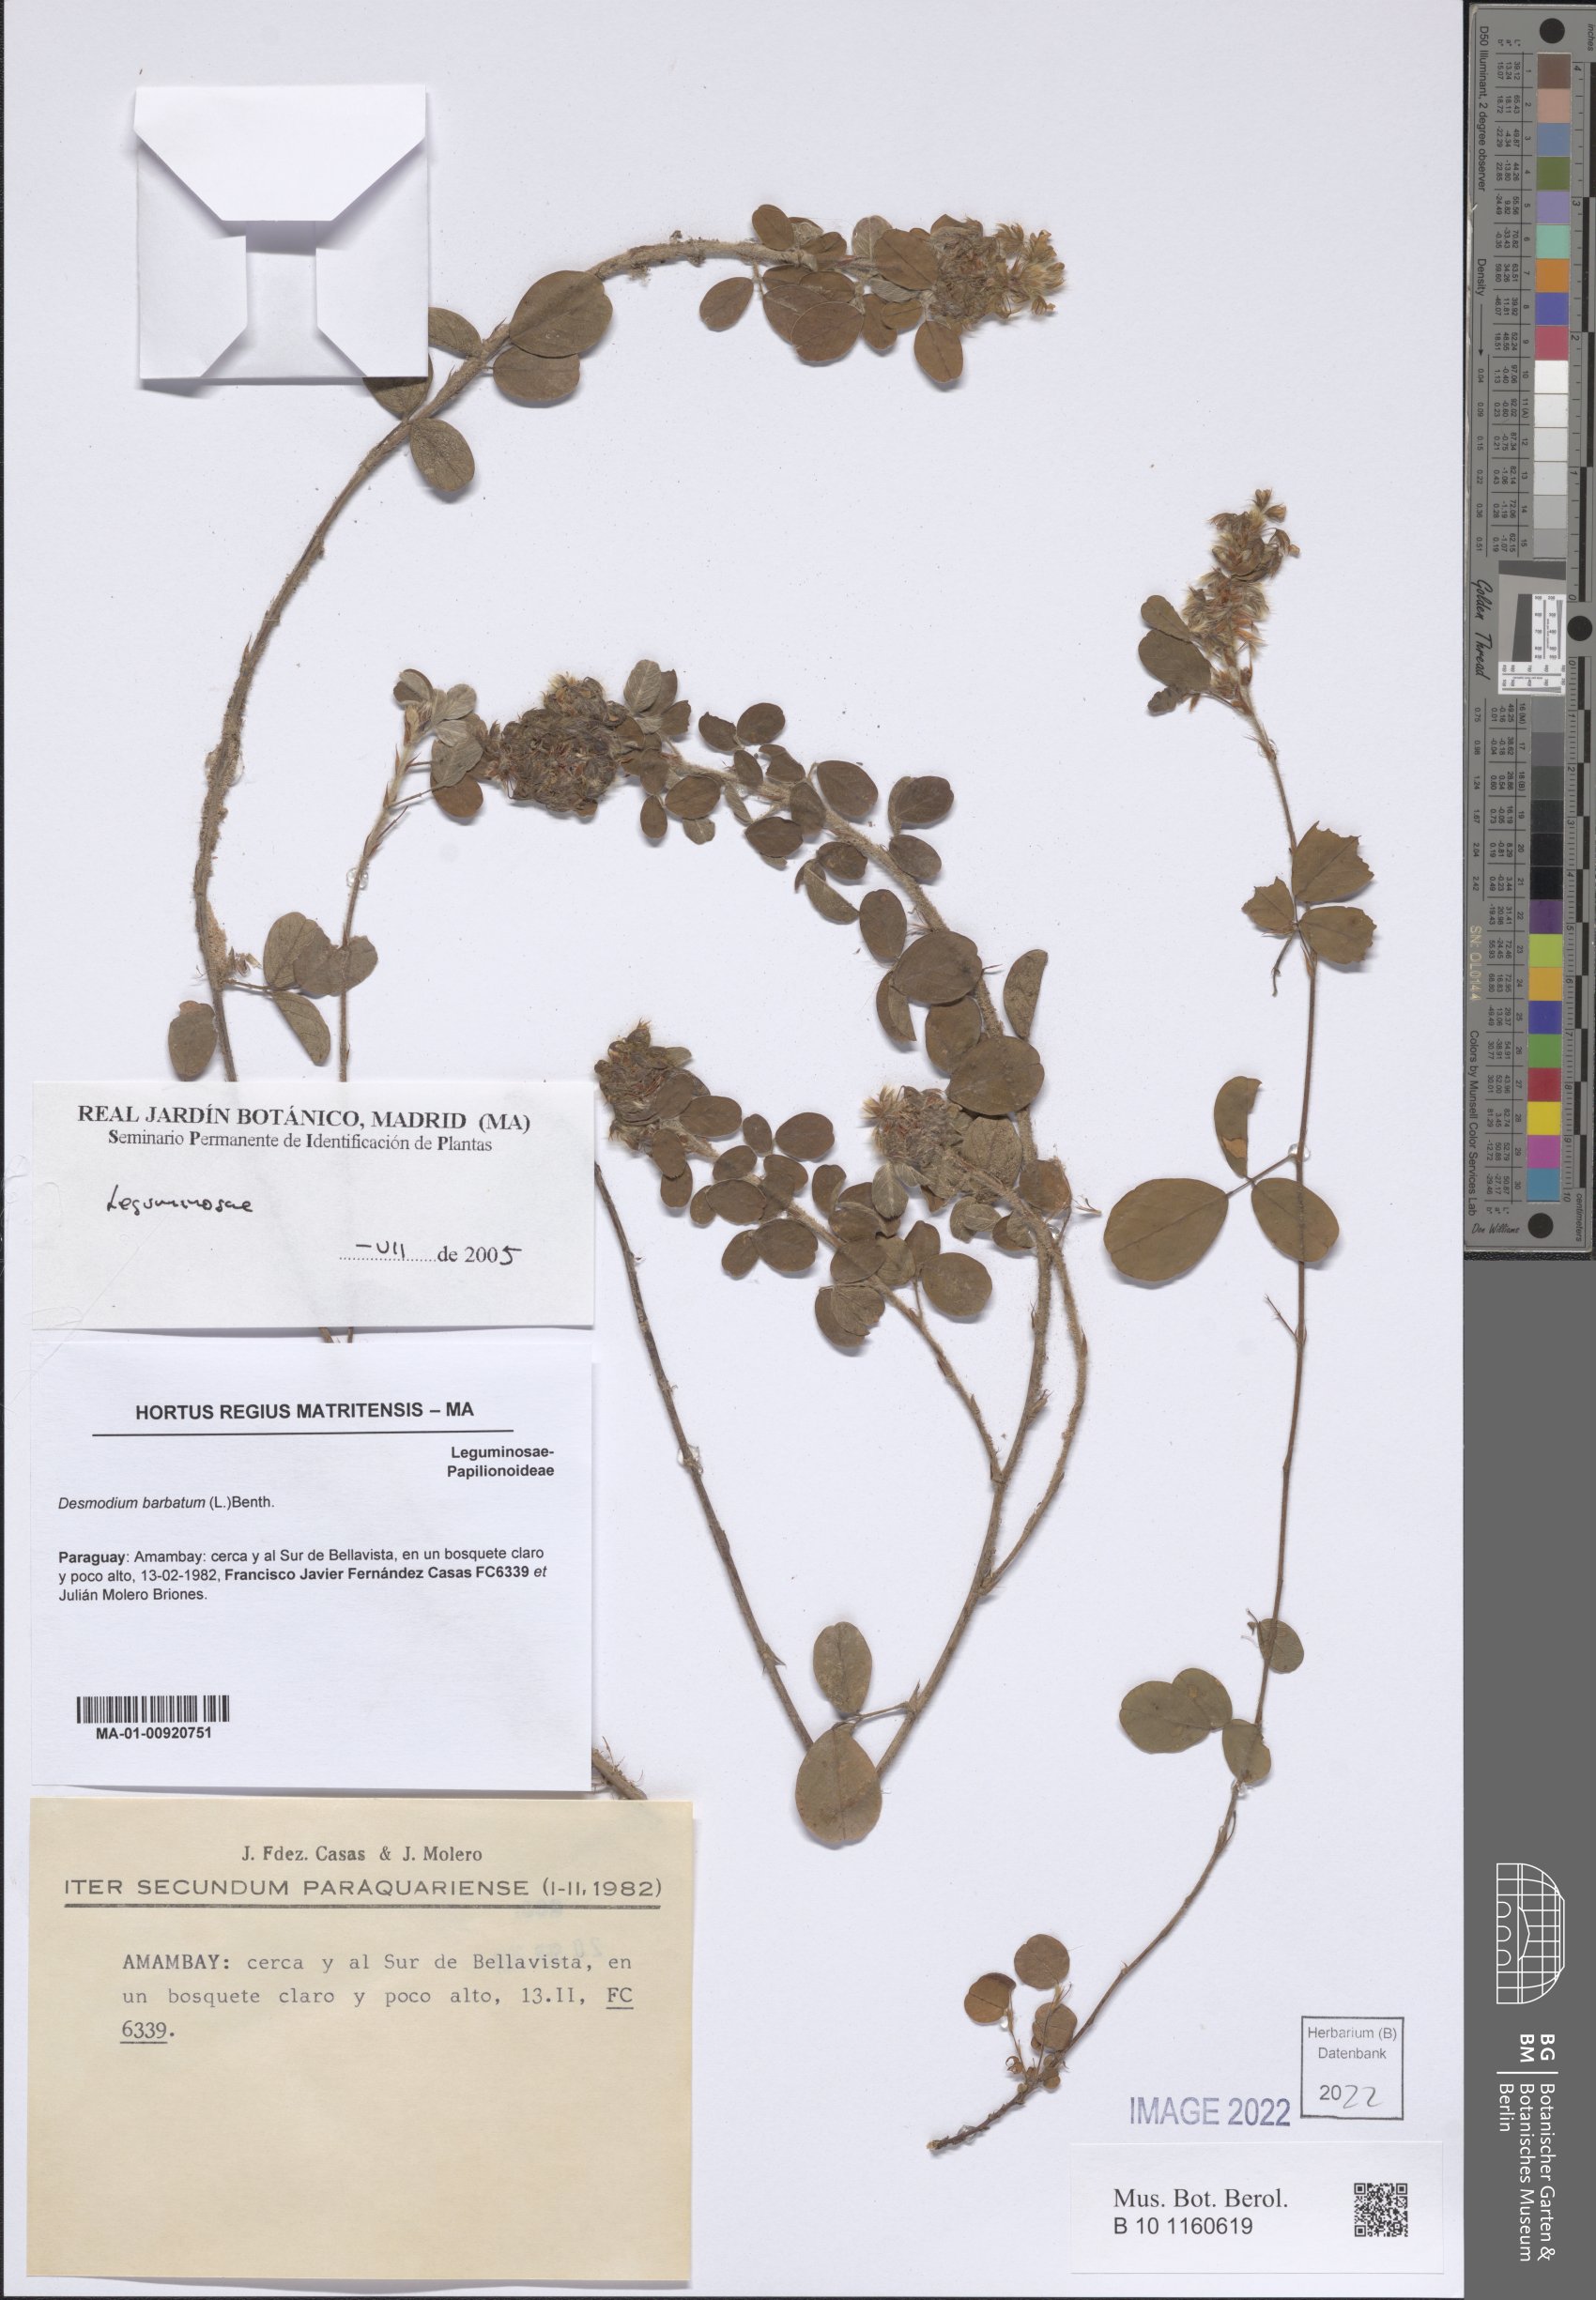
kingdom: Plantae
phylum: Tracheophyta
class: Magnoliopsida
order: Fabales
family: Fabaceae
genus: Grona
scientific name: Grona barbata
